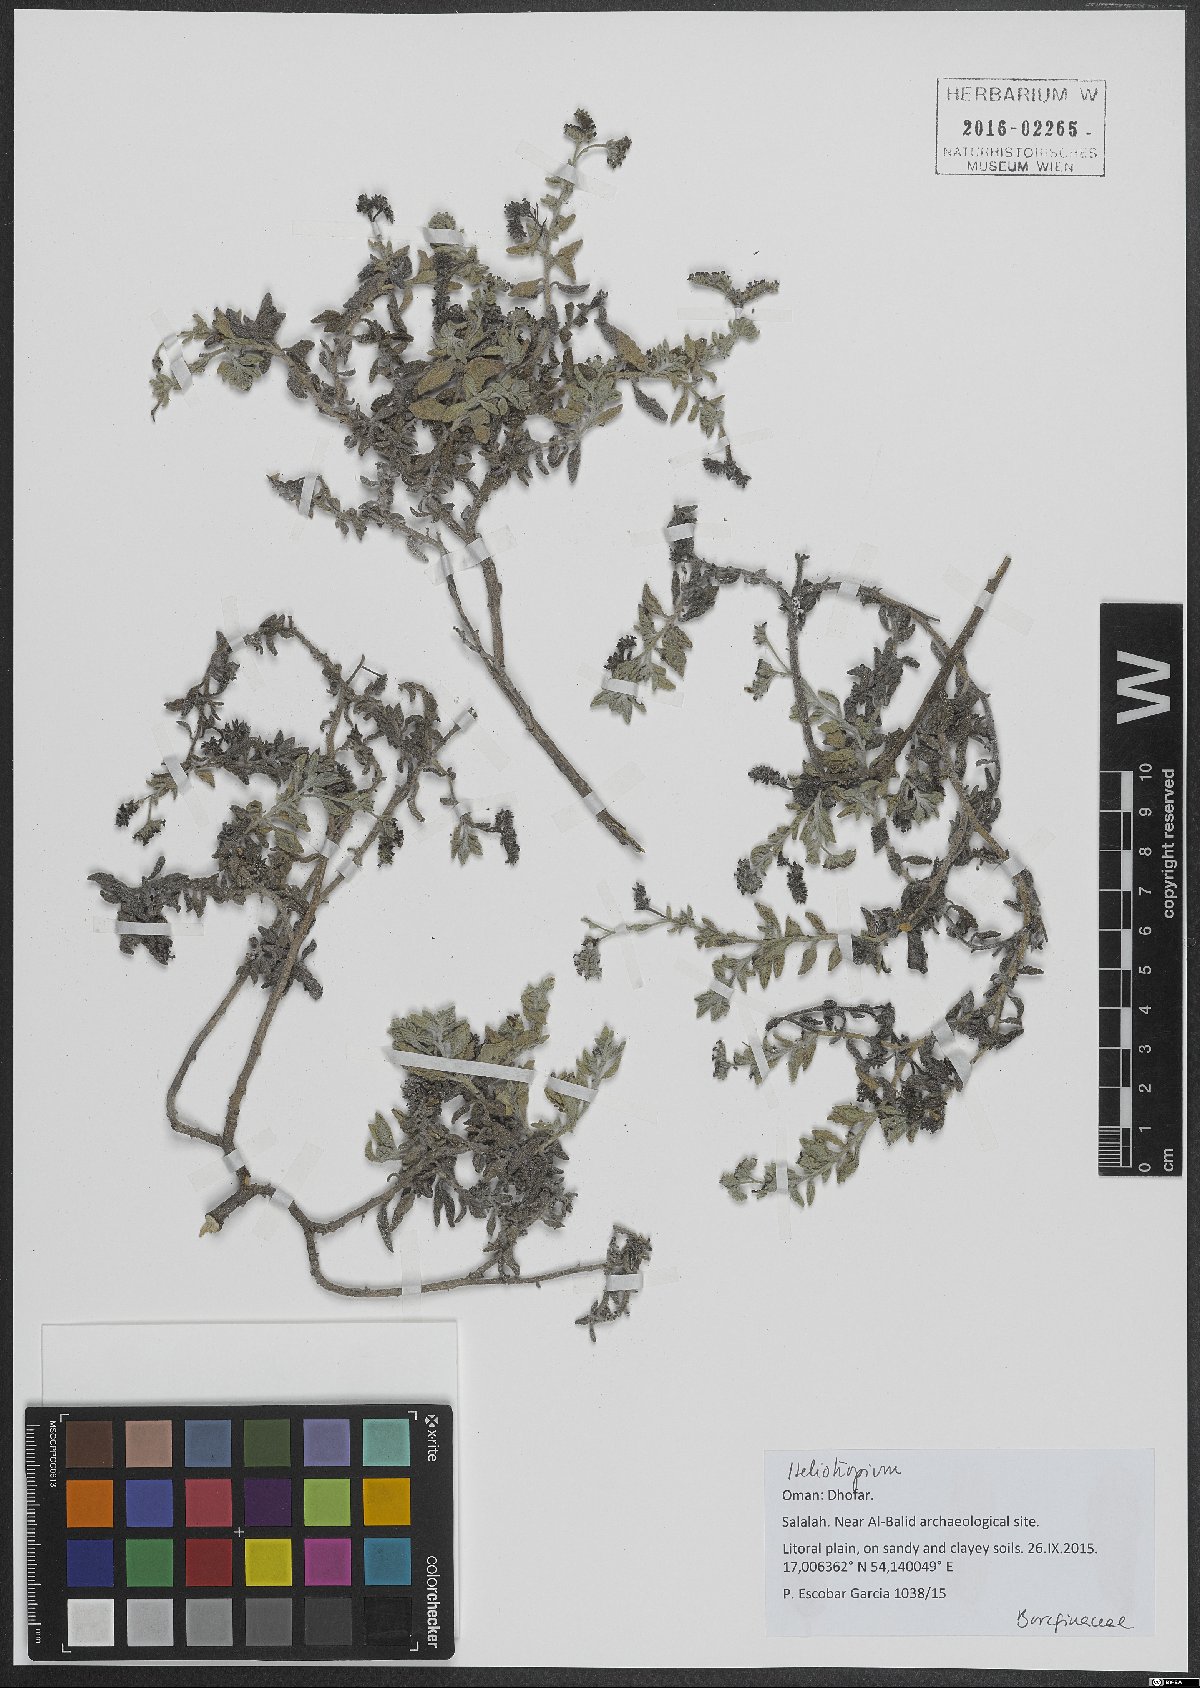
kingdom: Plantae
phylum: Tracheophyta
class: Magnoliopsida
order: Boraginales
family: Heliotropiaceae
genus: Heliotropium
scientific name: Heliotropium
